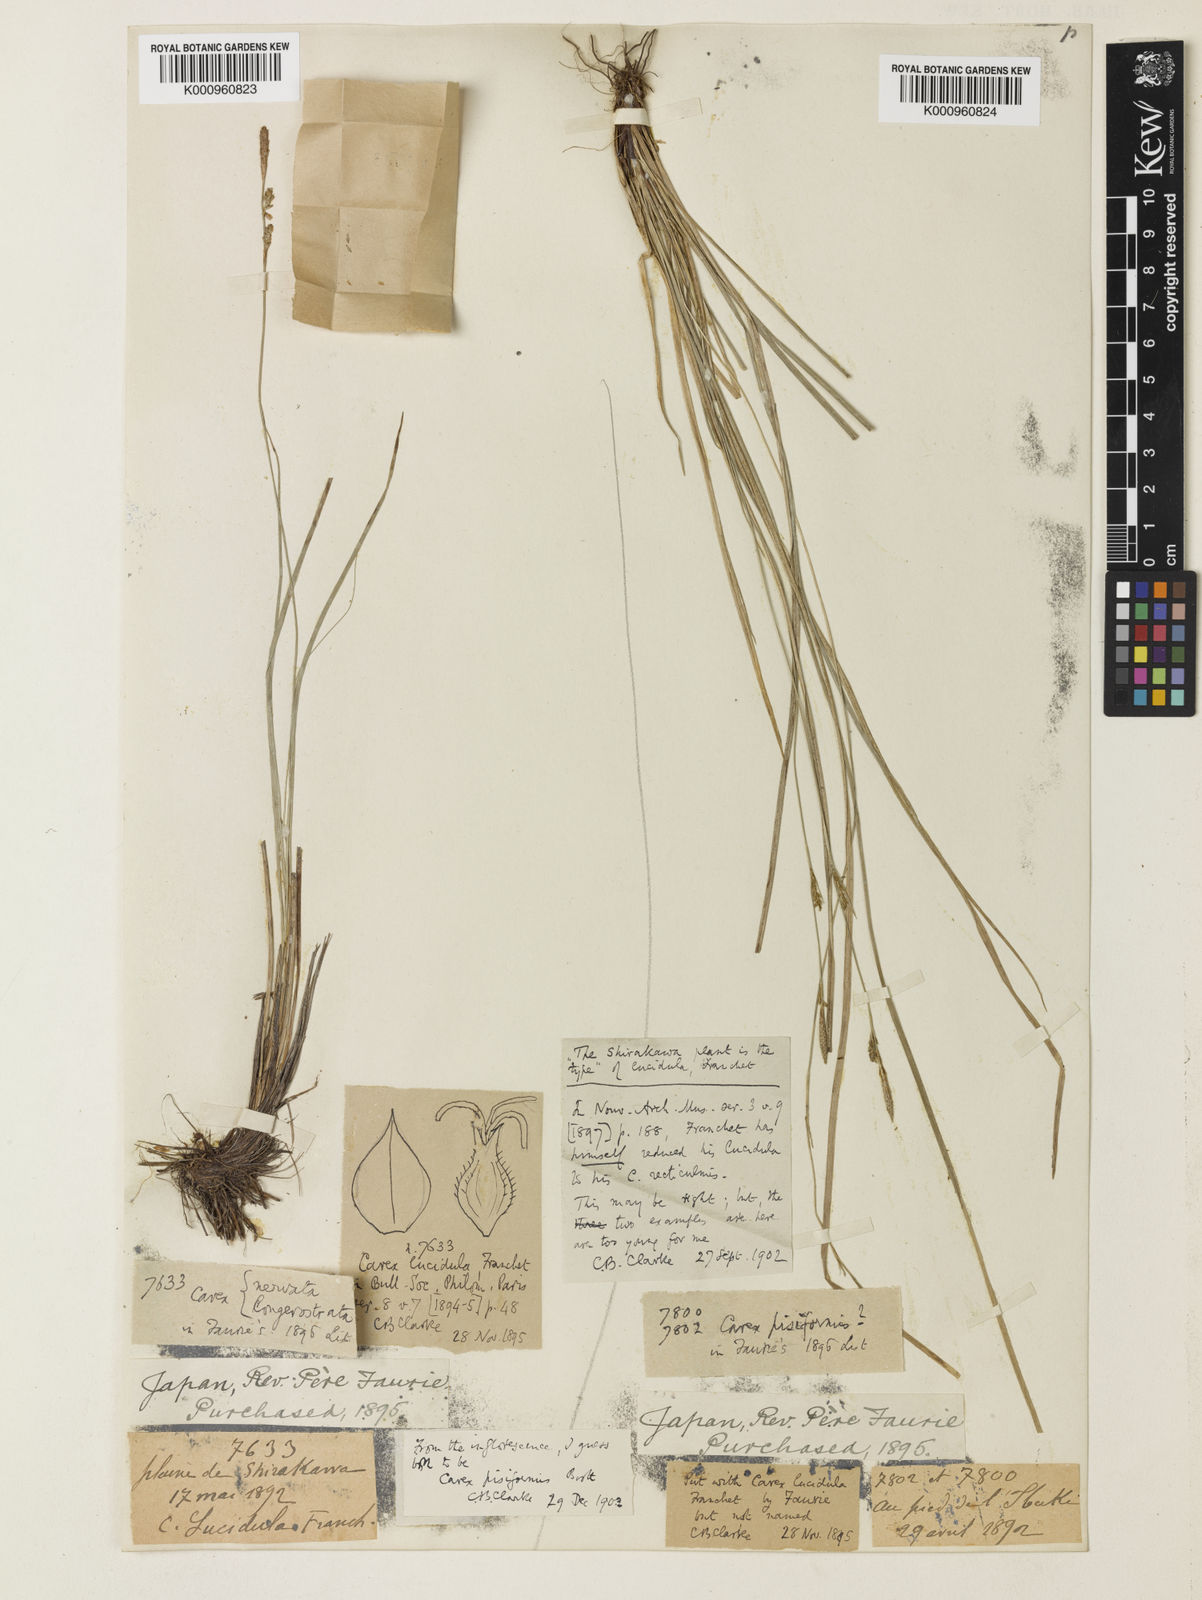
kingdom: Plantae
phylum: Tracheophyta
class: Liliopsida
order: Poales
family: Cyperaceae
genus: Carex
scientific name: Carex umbrosa
